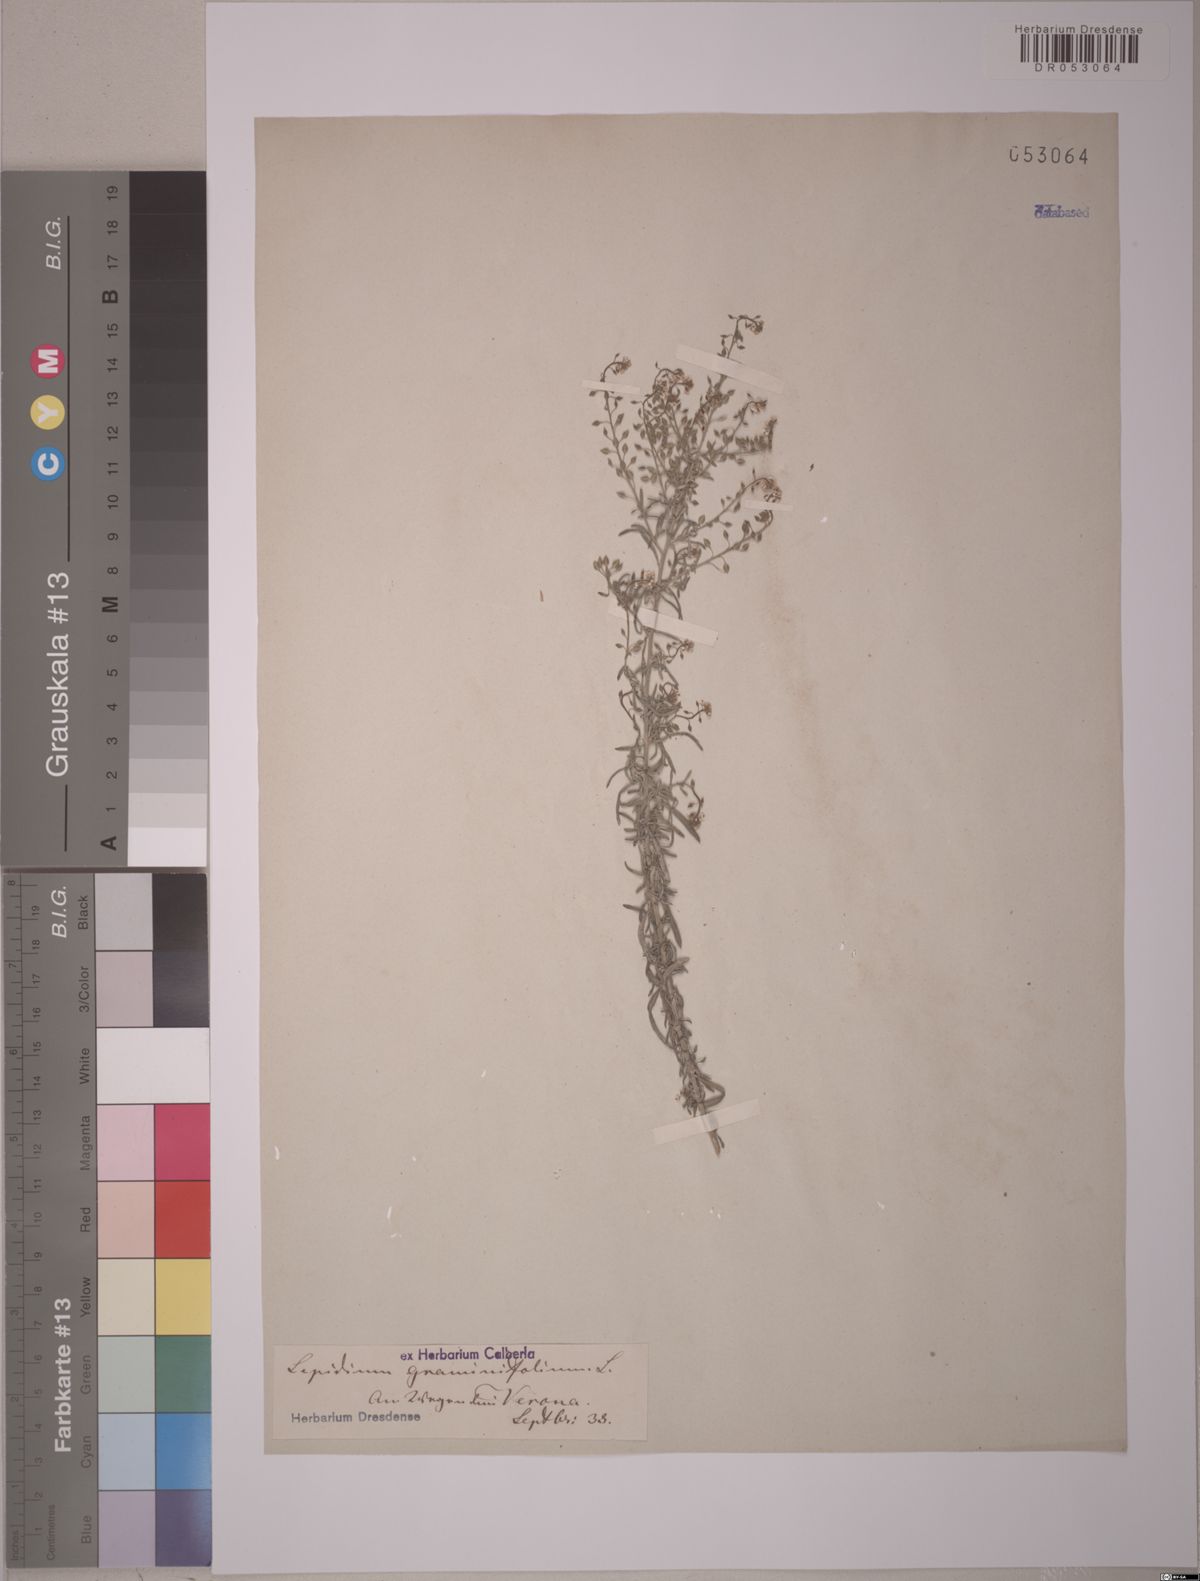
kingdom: Plantae
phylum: Tracheophyta
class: Magnoliopsida
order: Brassicales
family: Brassicaceae
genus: Lepidium
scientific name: Lepidium graminifolium
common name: Tall pepperwort
